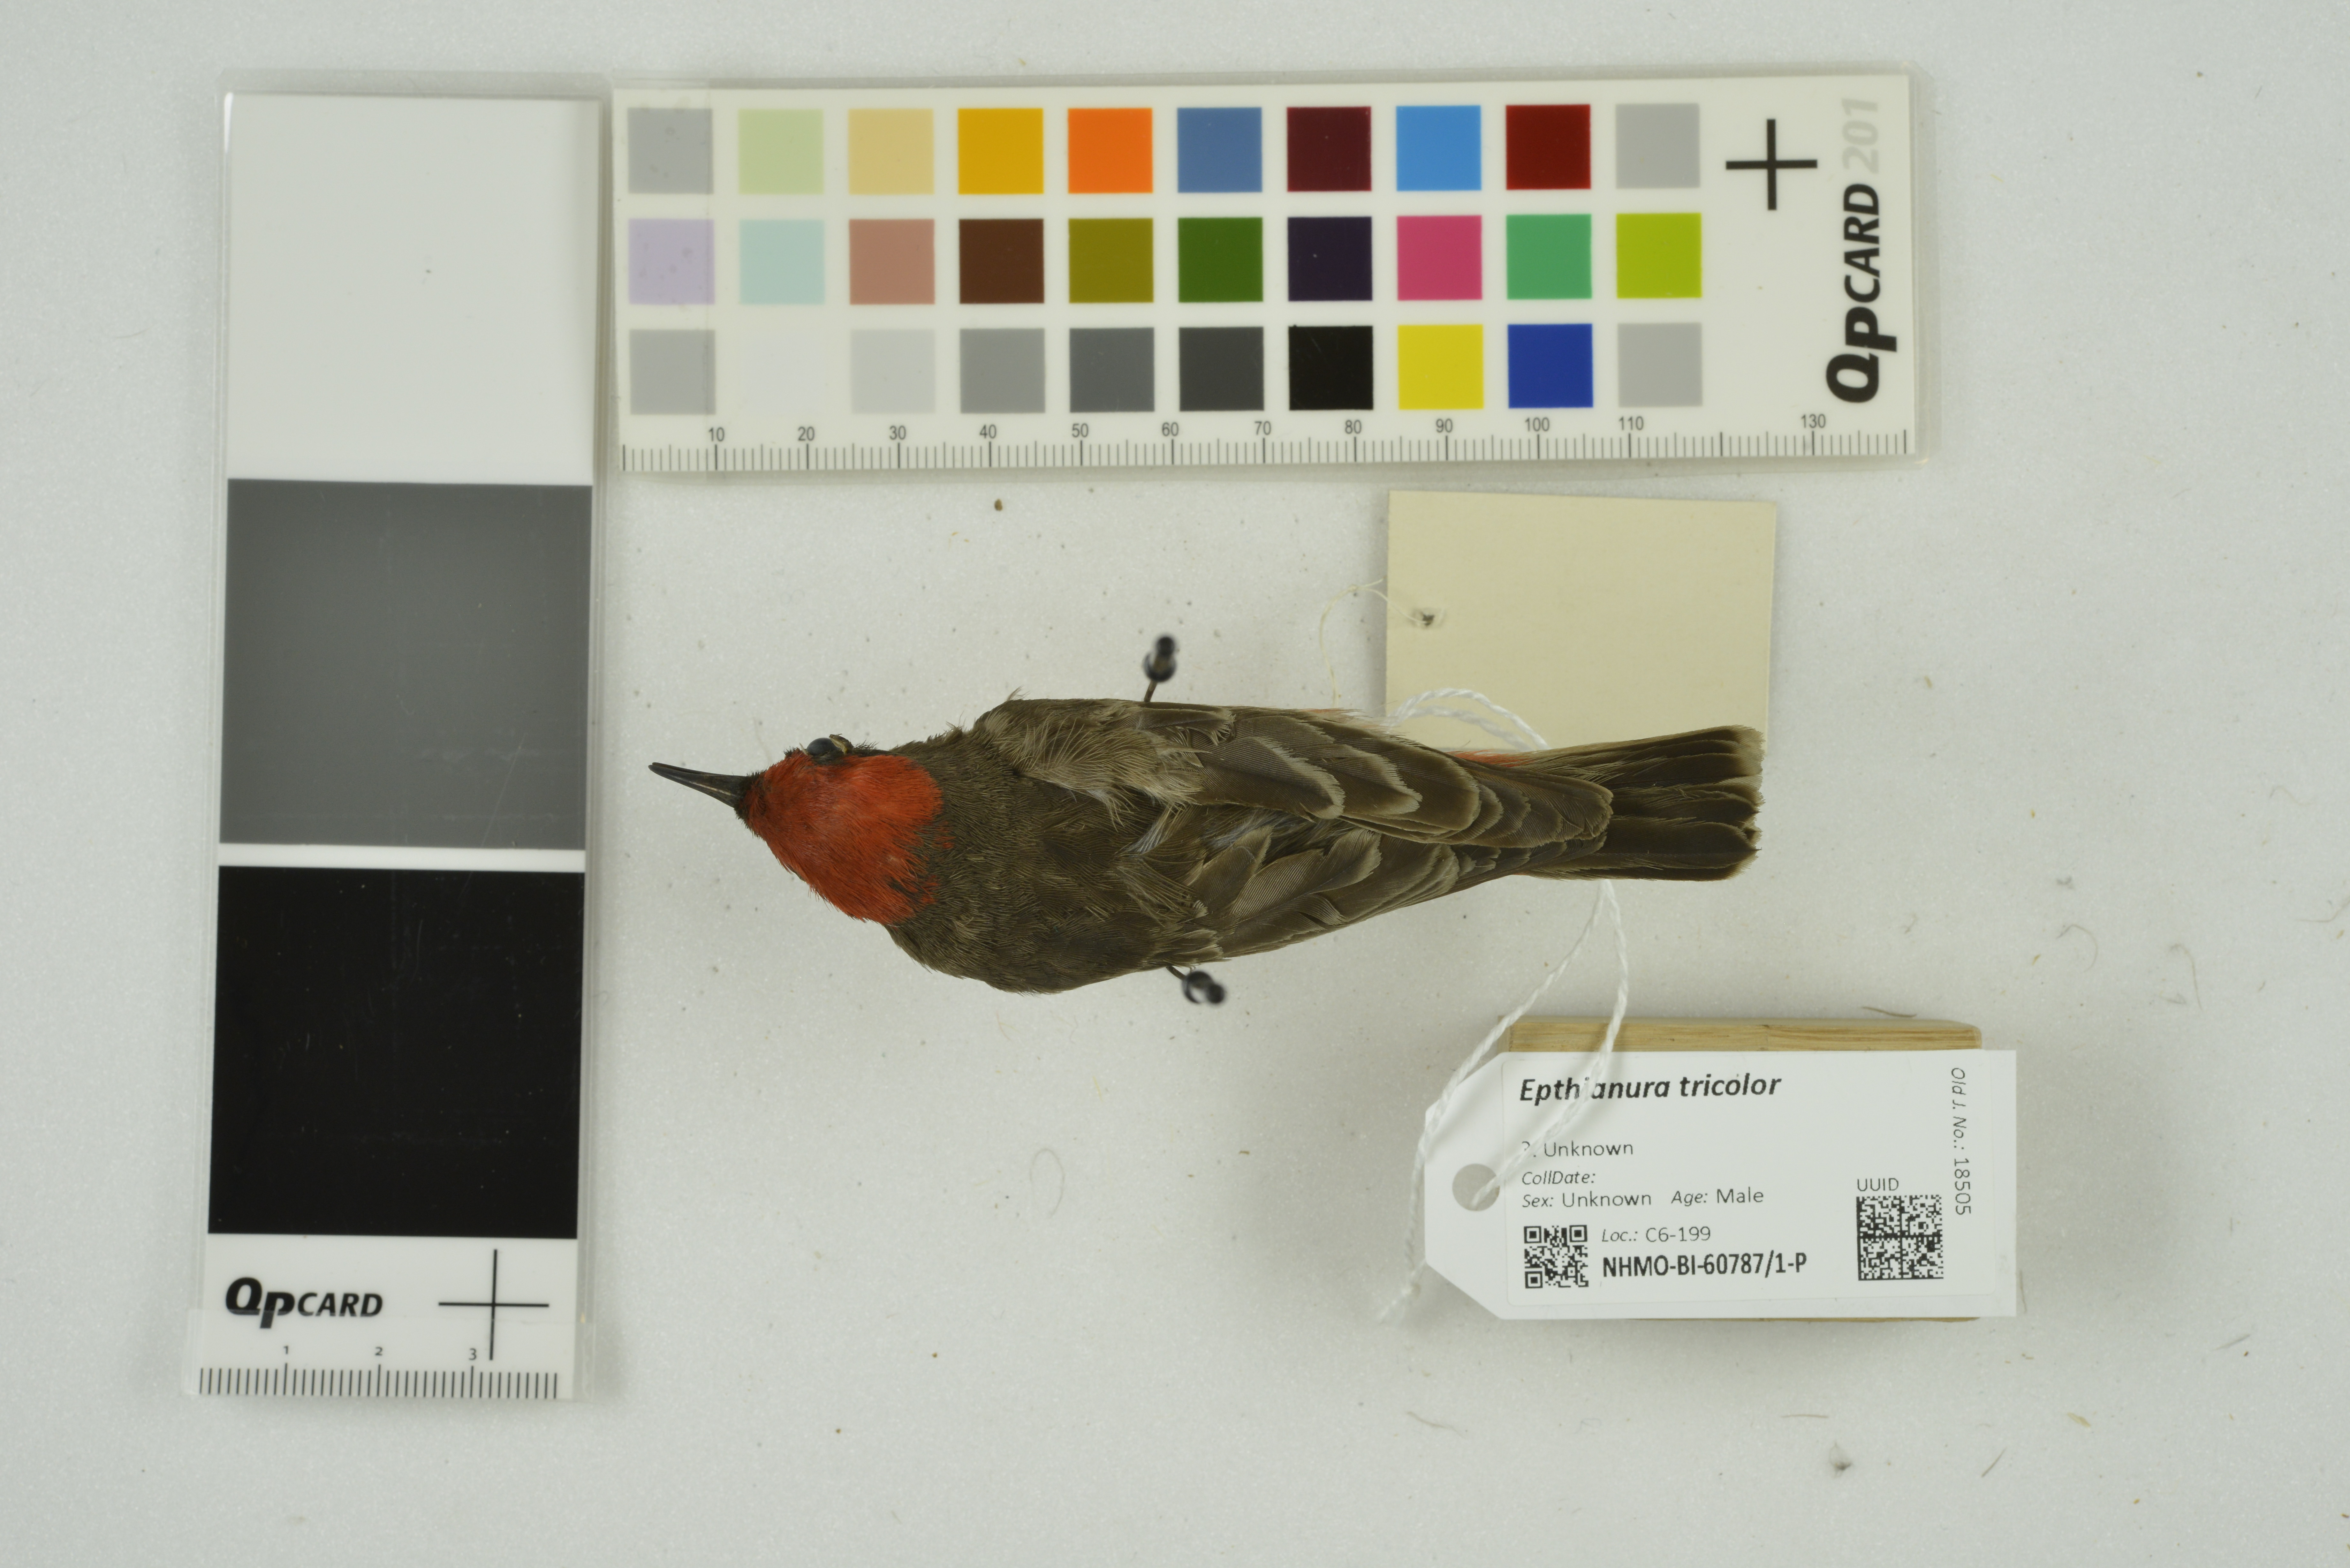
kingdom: Animalia
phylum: Chordata
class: Aves
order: Passeriformes
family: Meliphagidae
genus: Epthianura
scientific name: Epthianura tricolor
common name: Crimson chat
